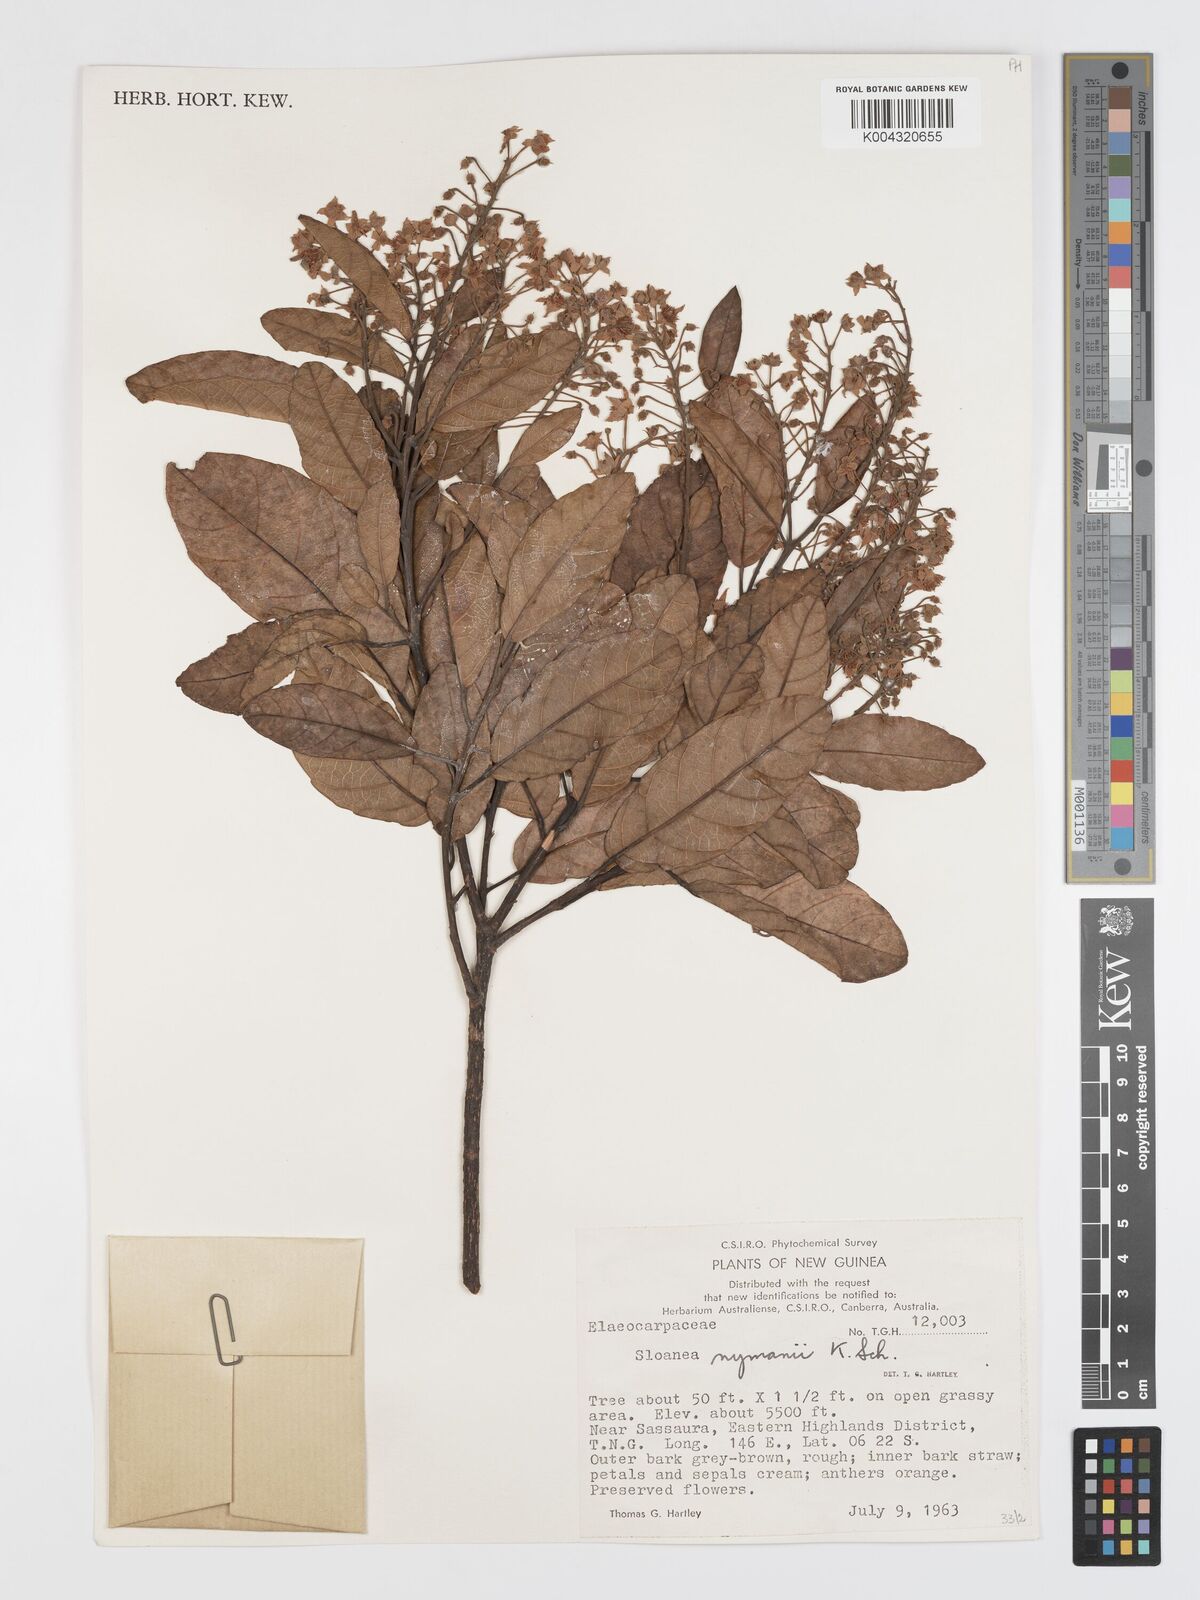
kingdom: Plantae
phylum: Tracheophyta
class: Magnoliopsida
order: Oxalidales
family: Elaeocarpaceae
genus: Sloanea
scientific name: Sloanea nymanii
